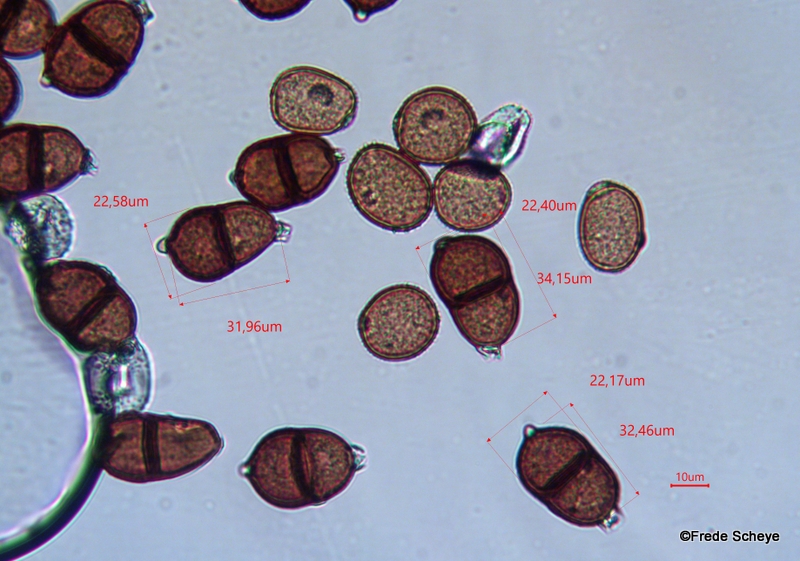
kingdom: Fungi
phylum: Basidiomycota
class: Pucciniomycetes
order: Pucciniales
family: Pucciniaceae
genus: Puccinia
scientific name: Puccinia komarovii
